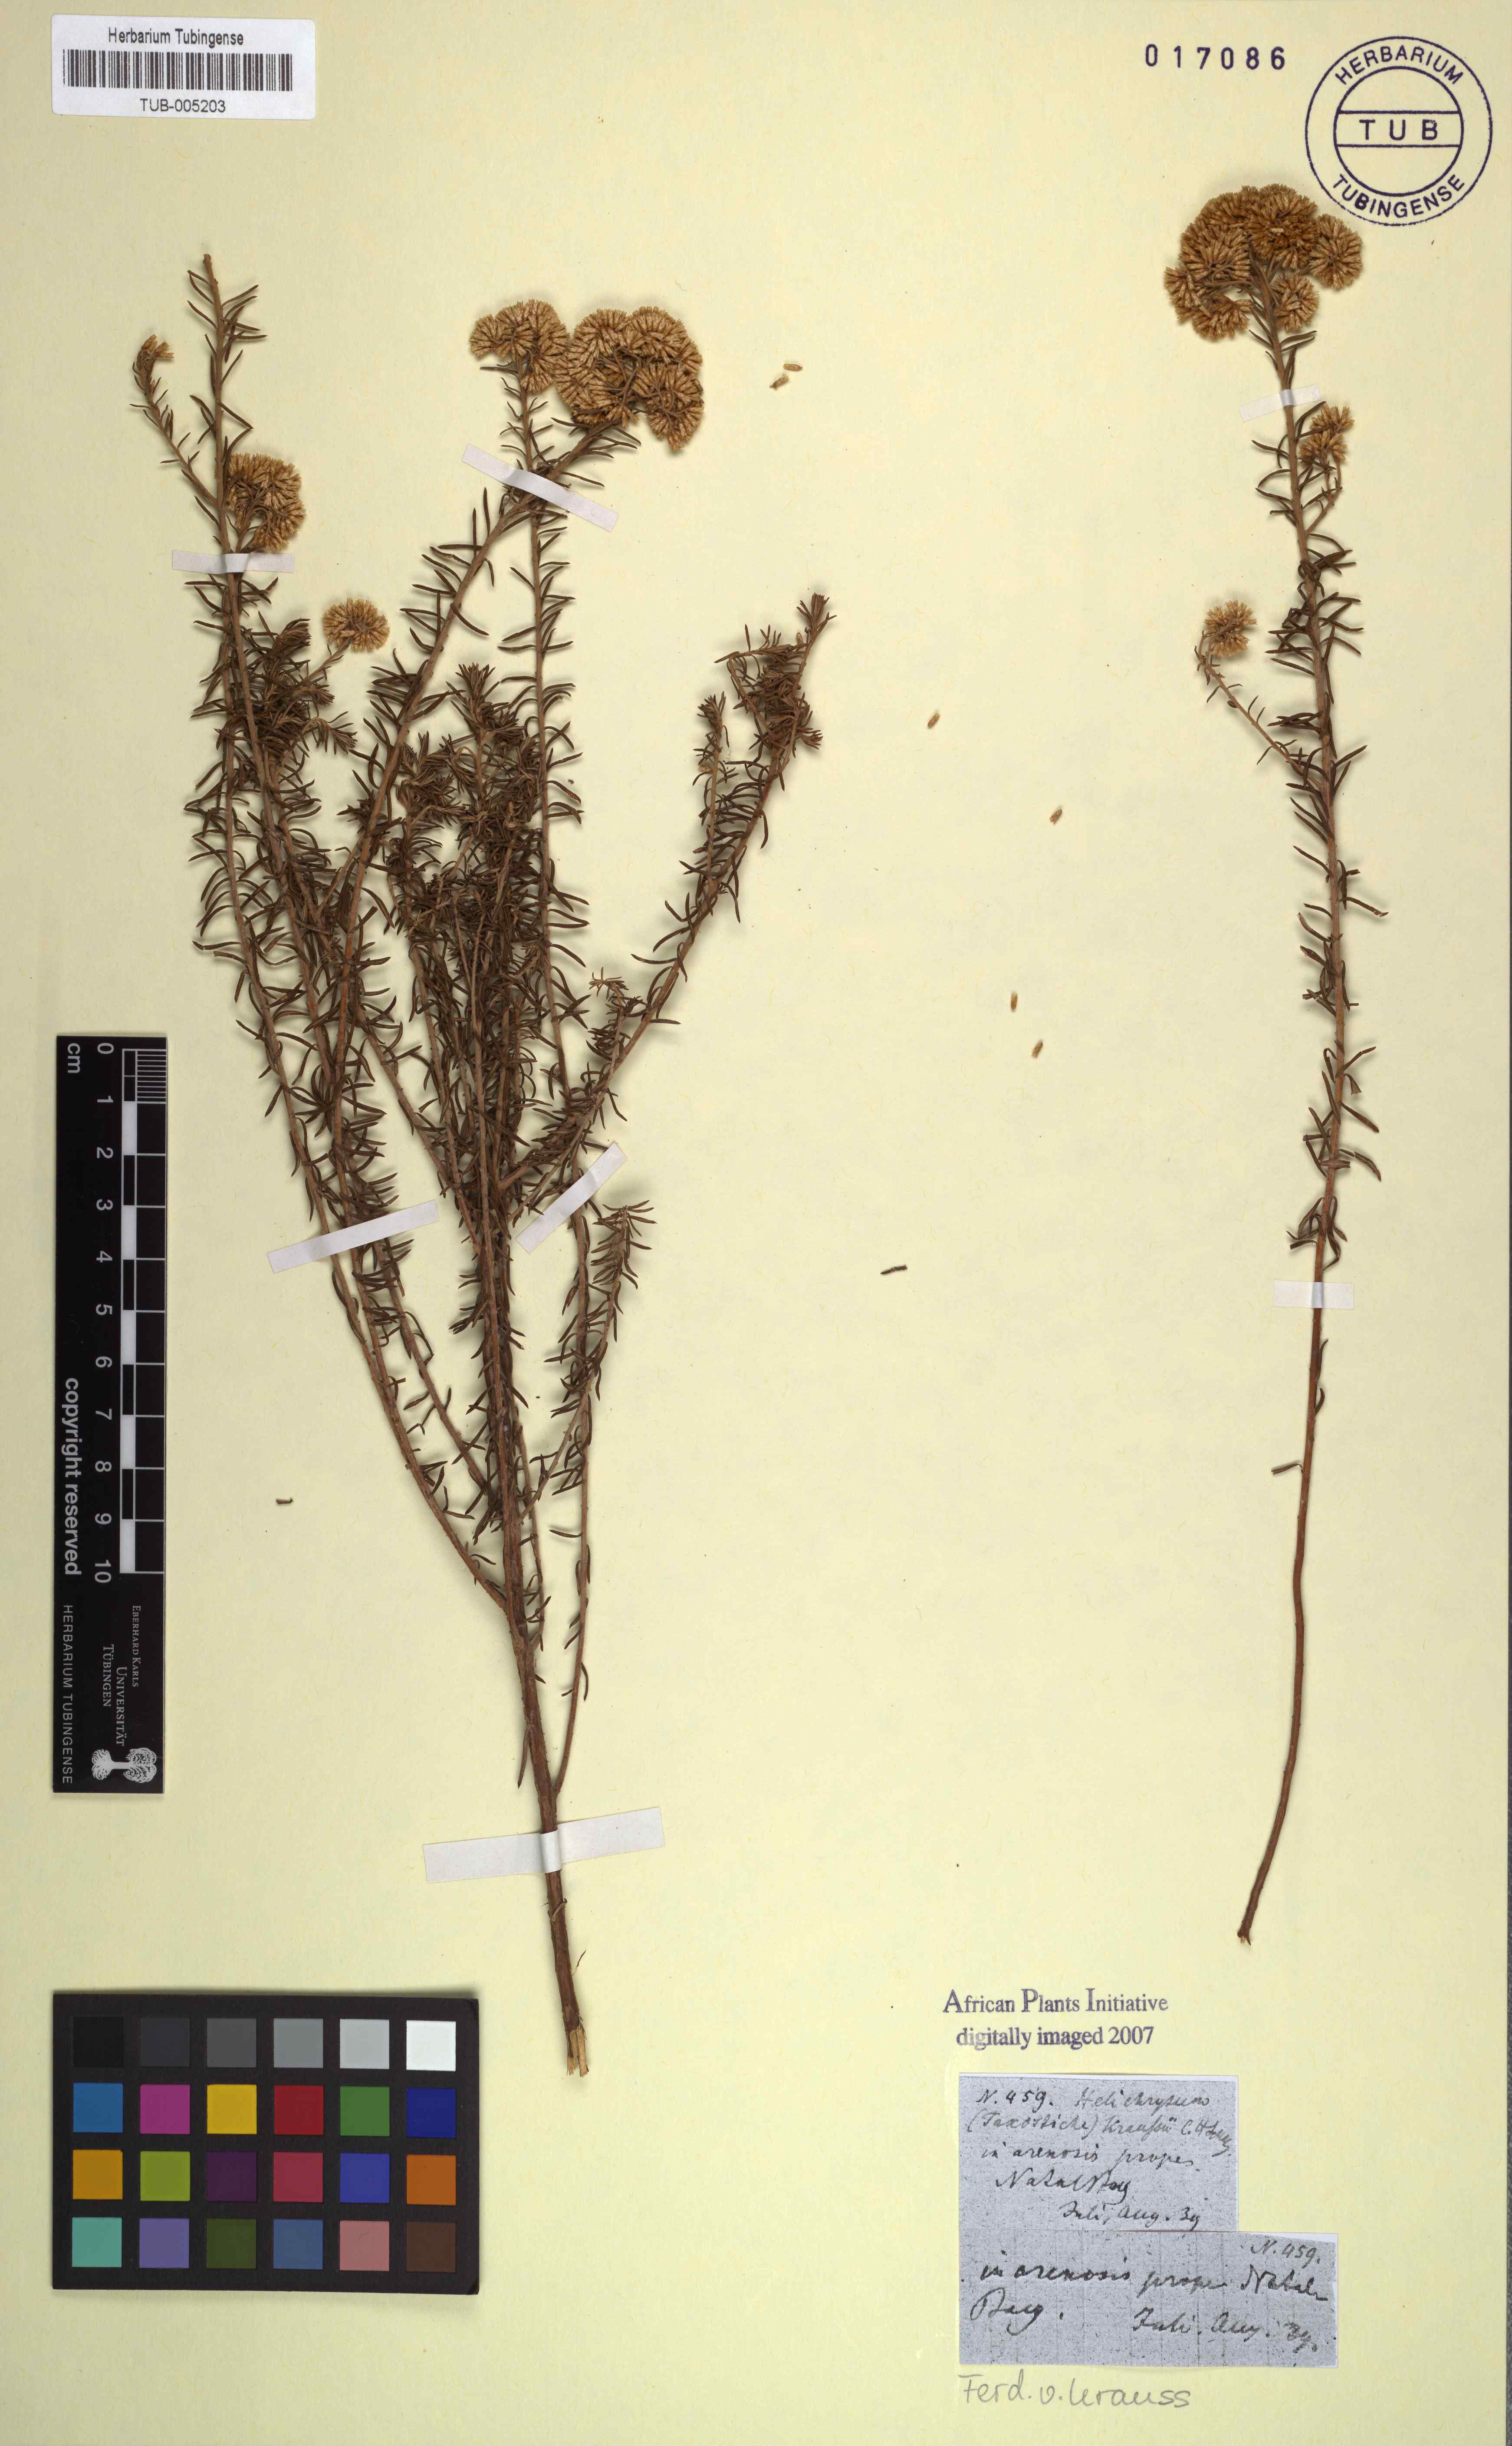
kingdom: Plantae
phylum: Tracheophyta
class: Magnoliopsida
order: Asterales
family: Asteraceae
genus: Helichrysum
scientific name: Helichrysum kraussii
